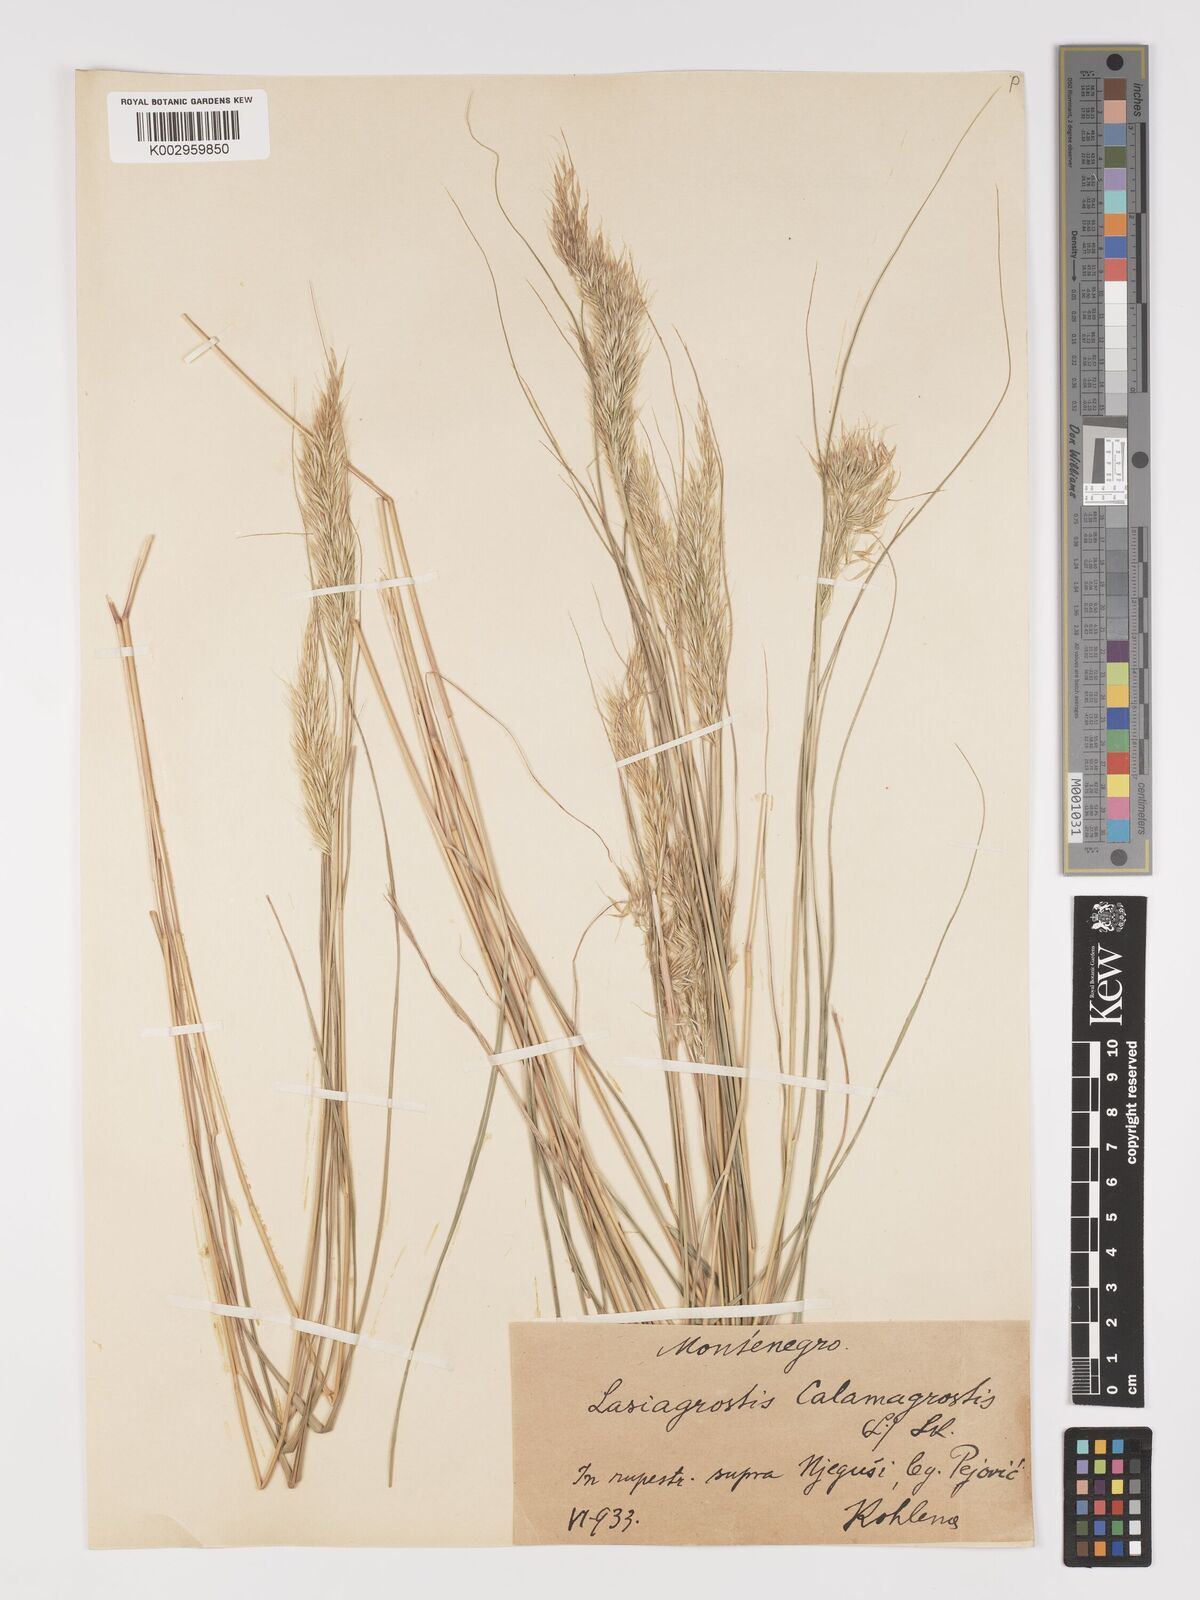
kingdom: Plantae
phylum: Tracheophyta
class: Liliopsida
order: Poales
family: Poaceae
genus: Achnatherum
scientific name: Achnatherum calamagrostis
